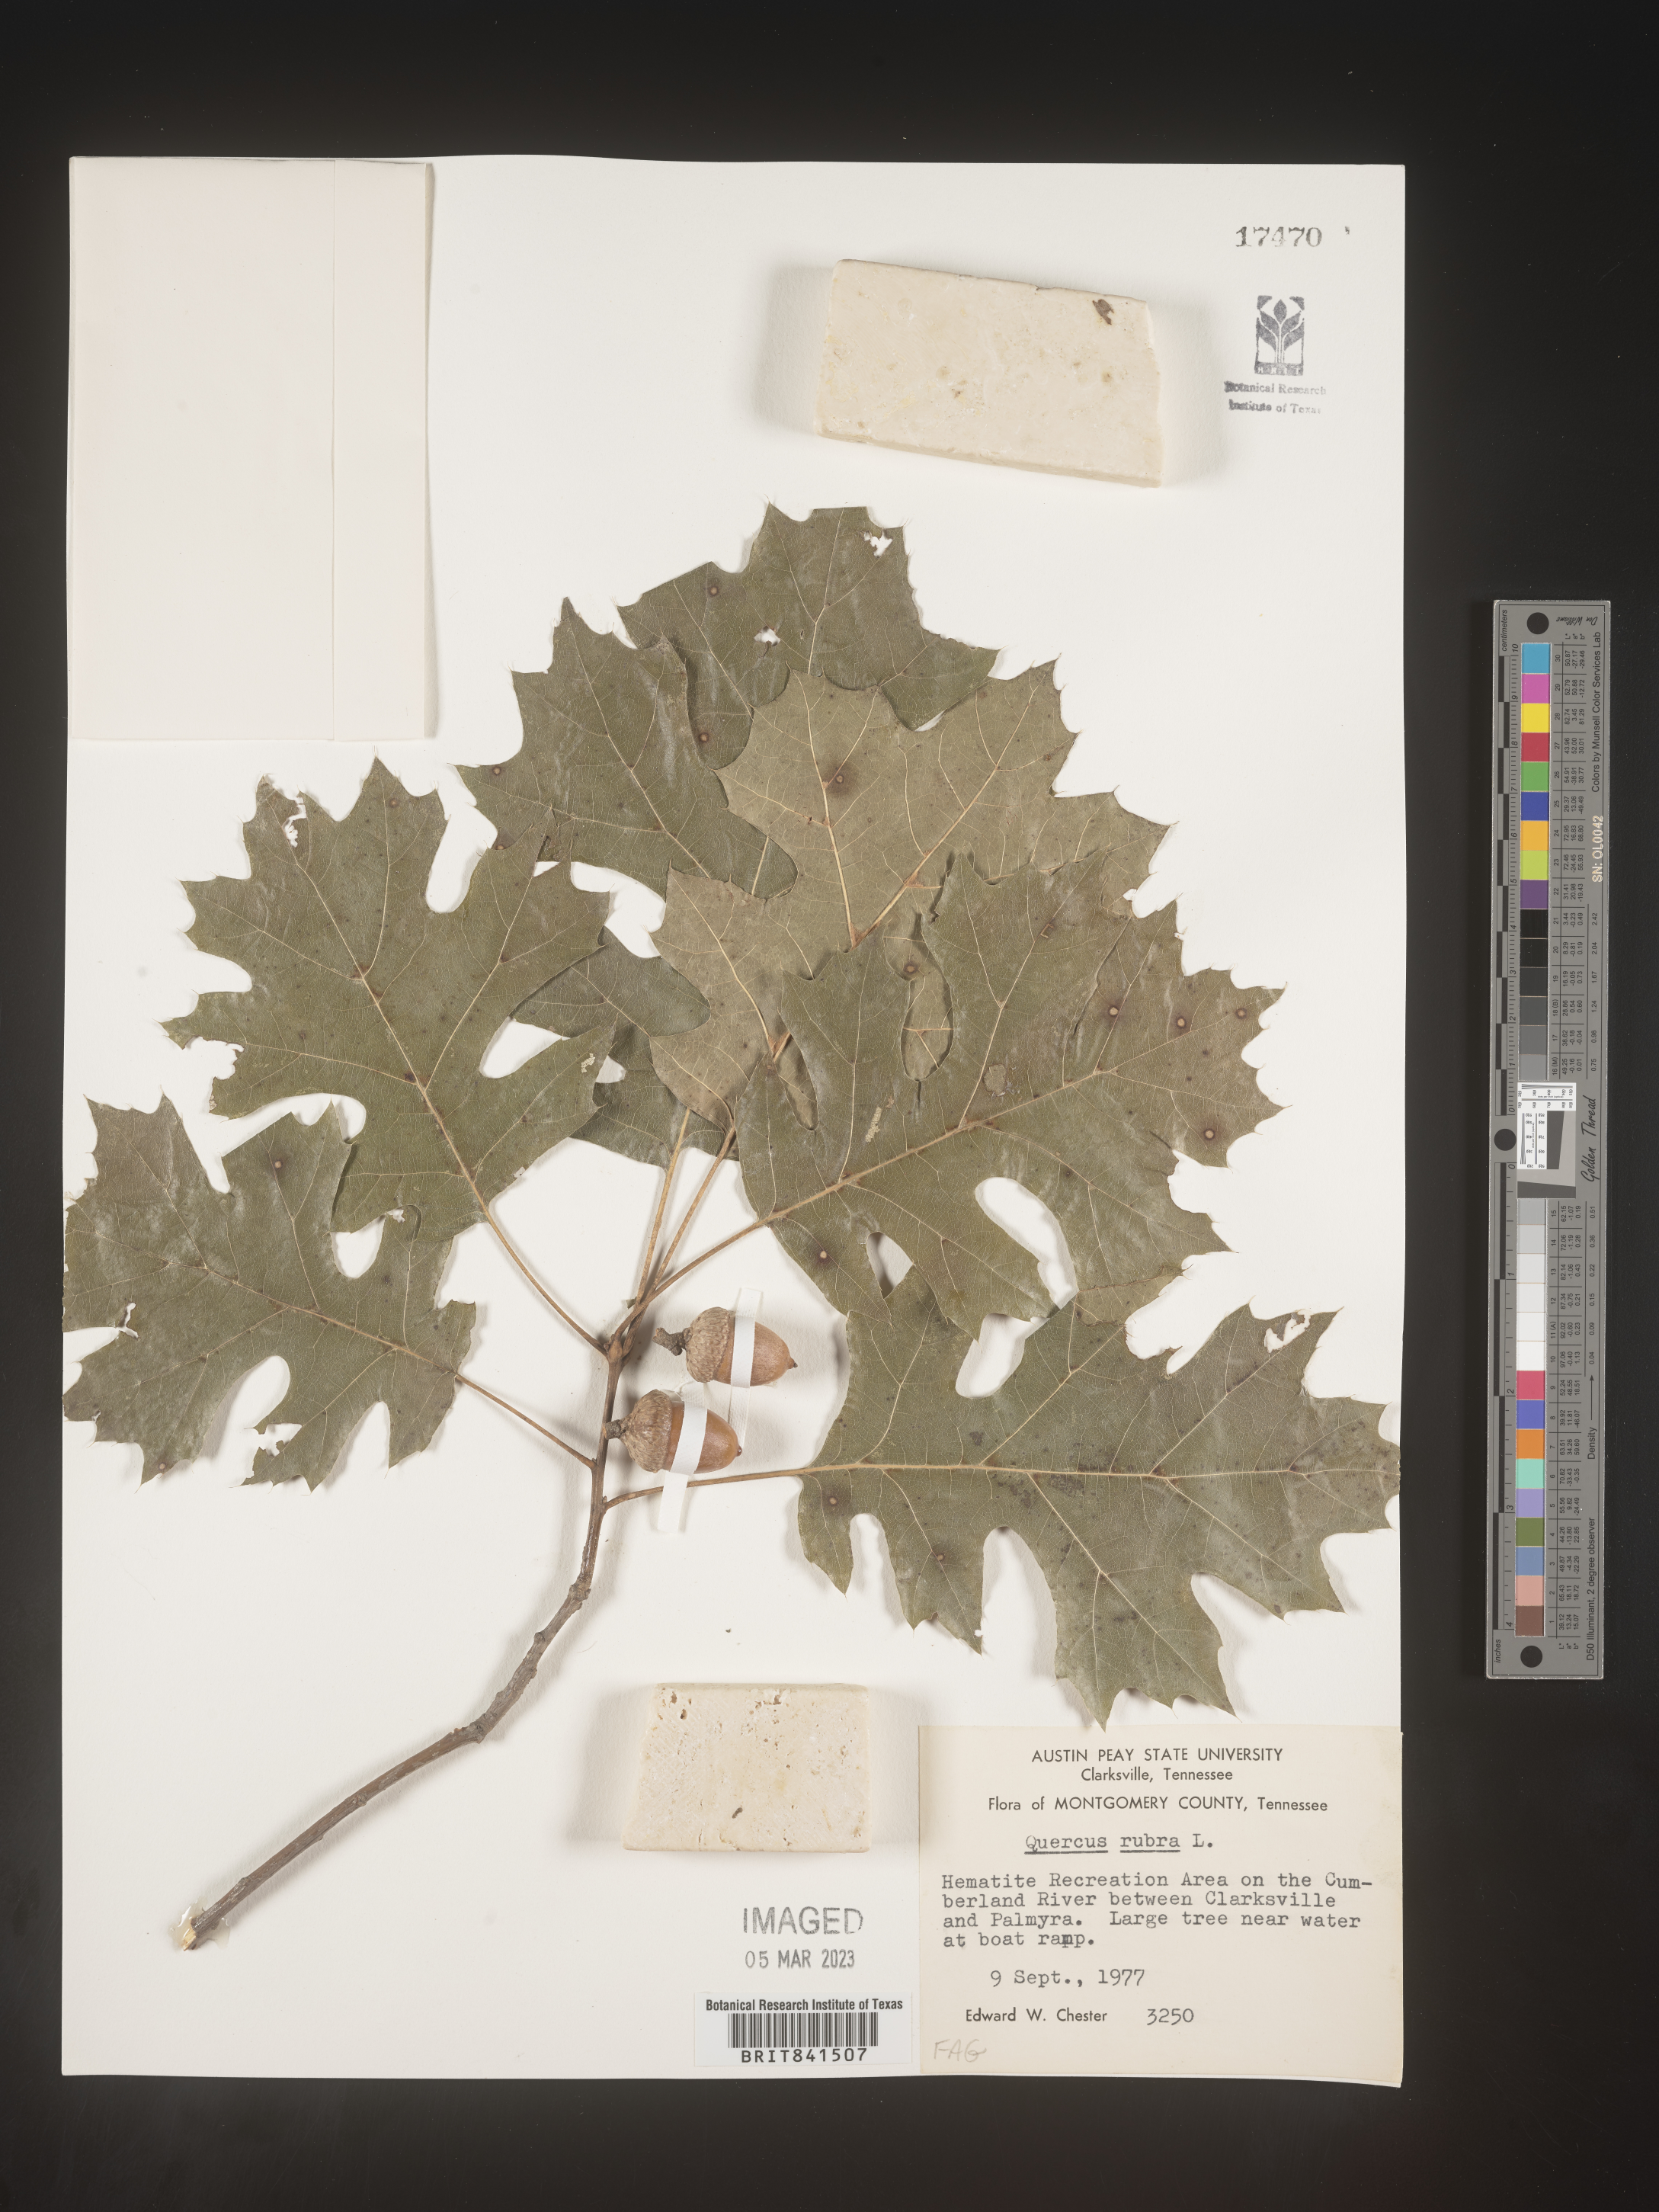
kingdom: Plantae
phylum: Tracheophyta
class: Magnoliopsida
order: Fagales
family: Fagaceae
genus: Quercus
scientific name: Quercus rubra
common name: Red oak
